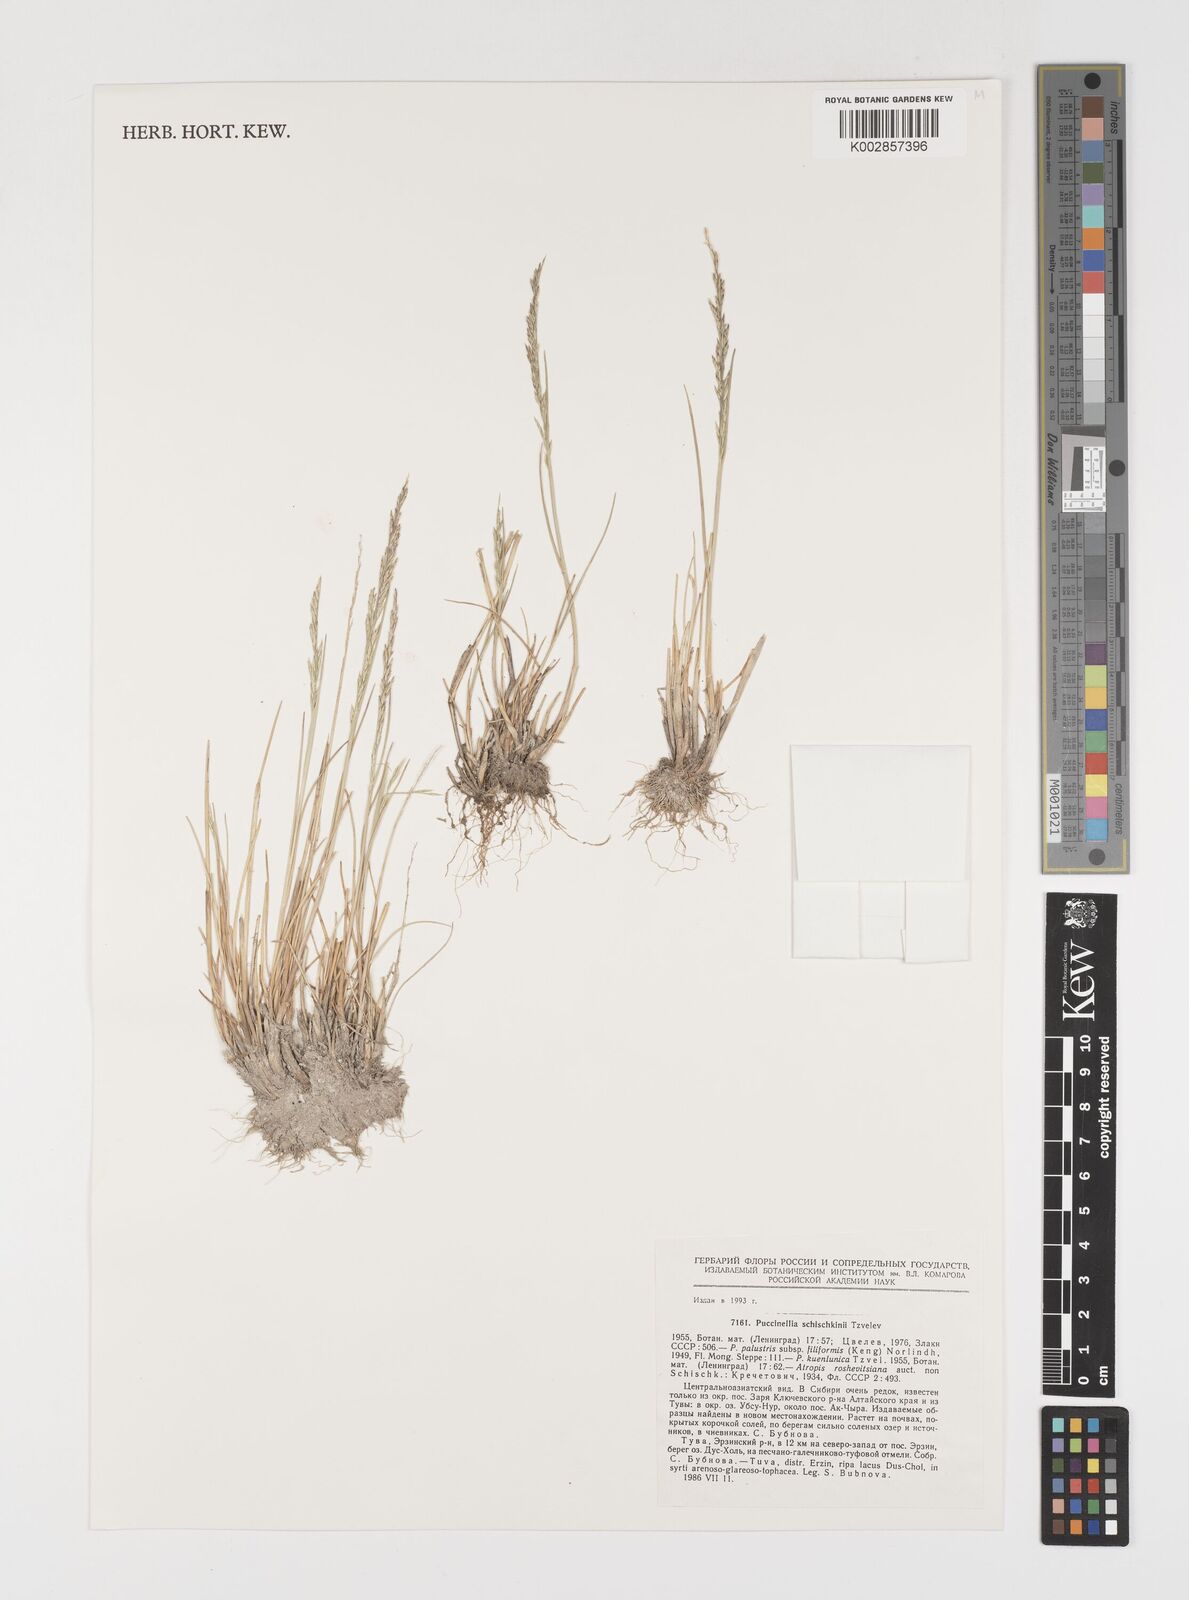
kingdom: Plantae
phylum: Tracheophyta
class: Liliopsida
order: Poales
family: Poaceae
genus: Puccinellia
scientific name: Puccinellia schischkinii
